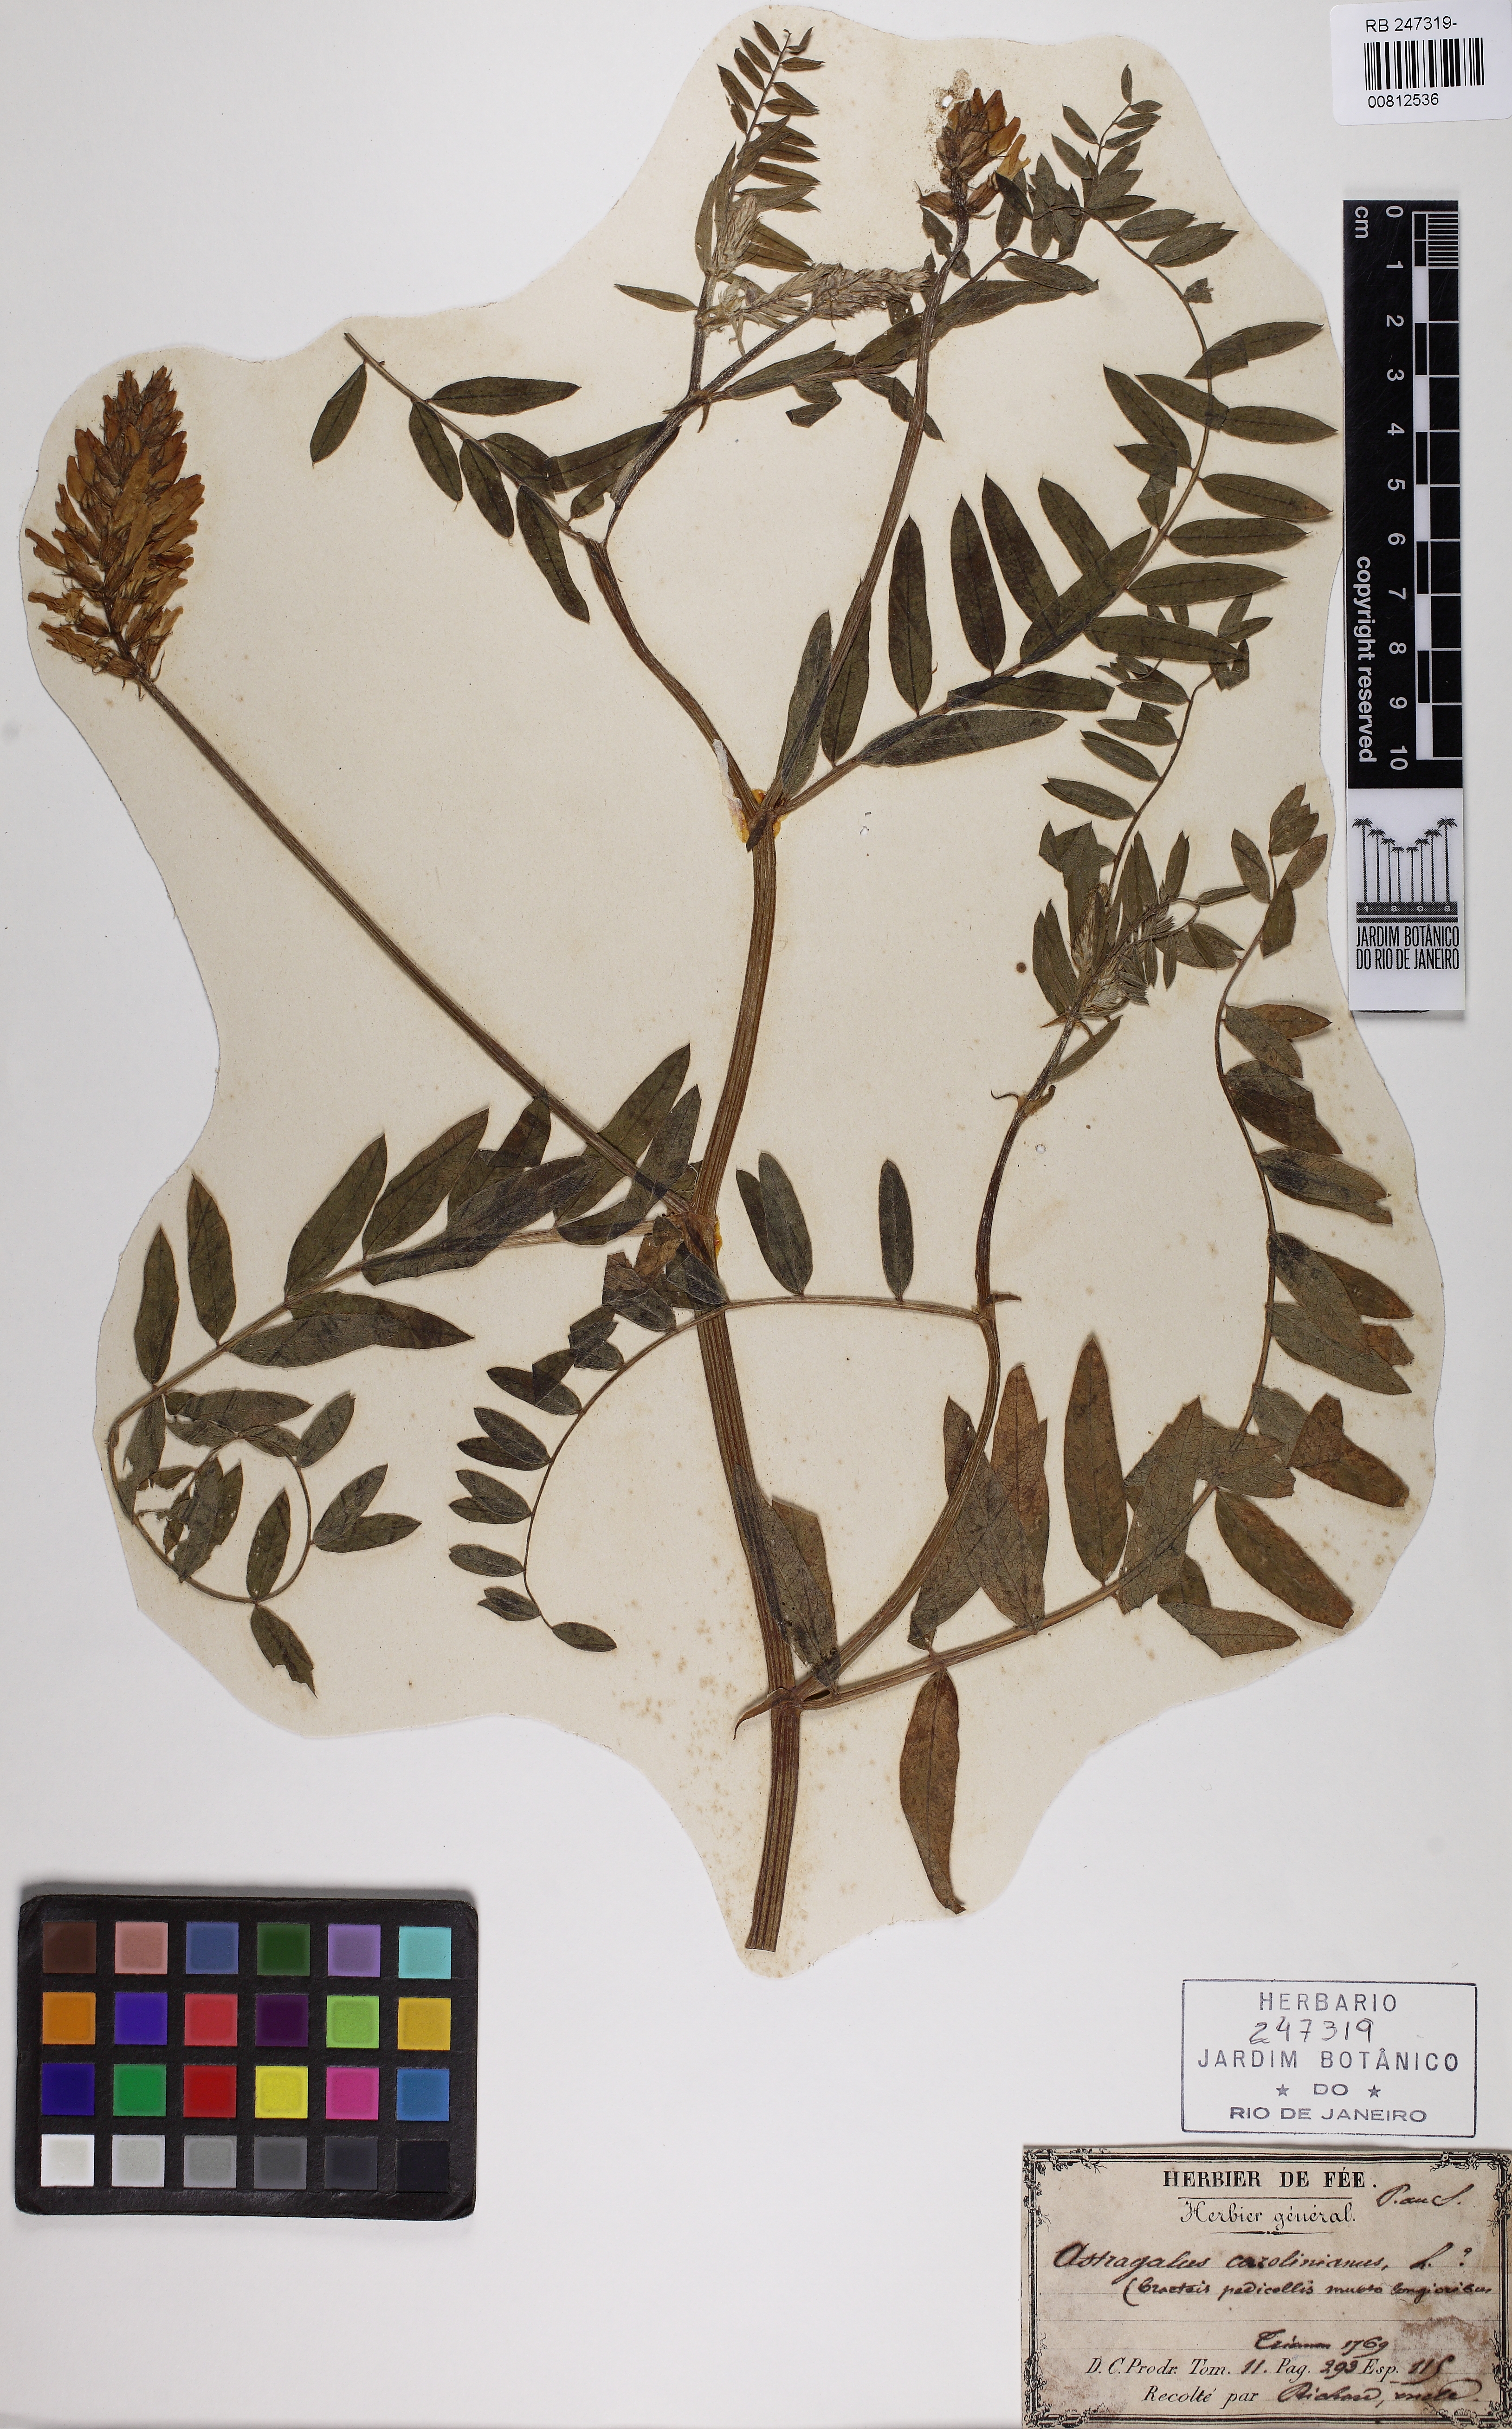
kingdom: Plantae
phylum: Tracheophyta
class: Magnoliopsida
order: Fabales
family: Fabaceae
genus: Astragalus
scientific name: Astragalus canadensis
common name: Canada milk-vetch
